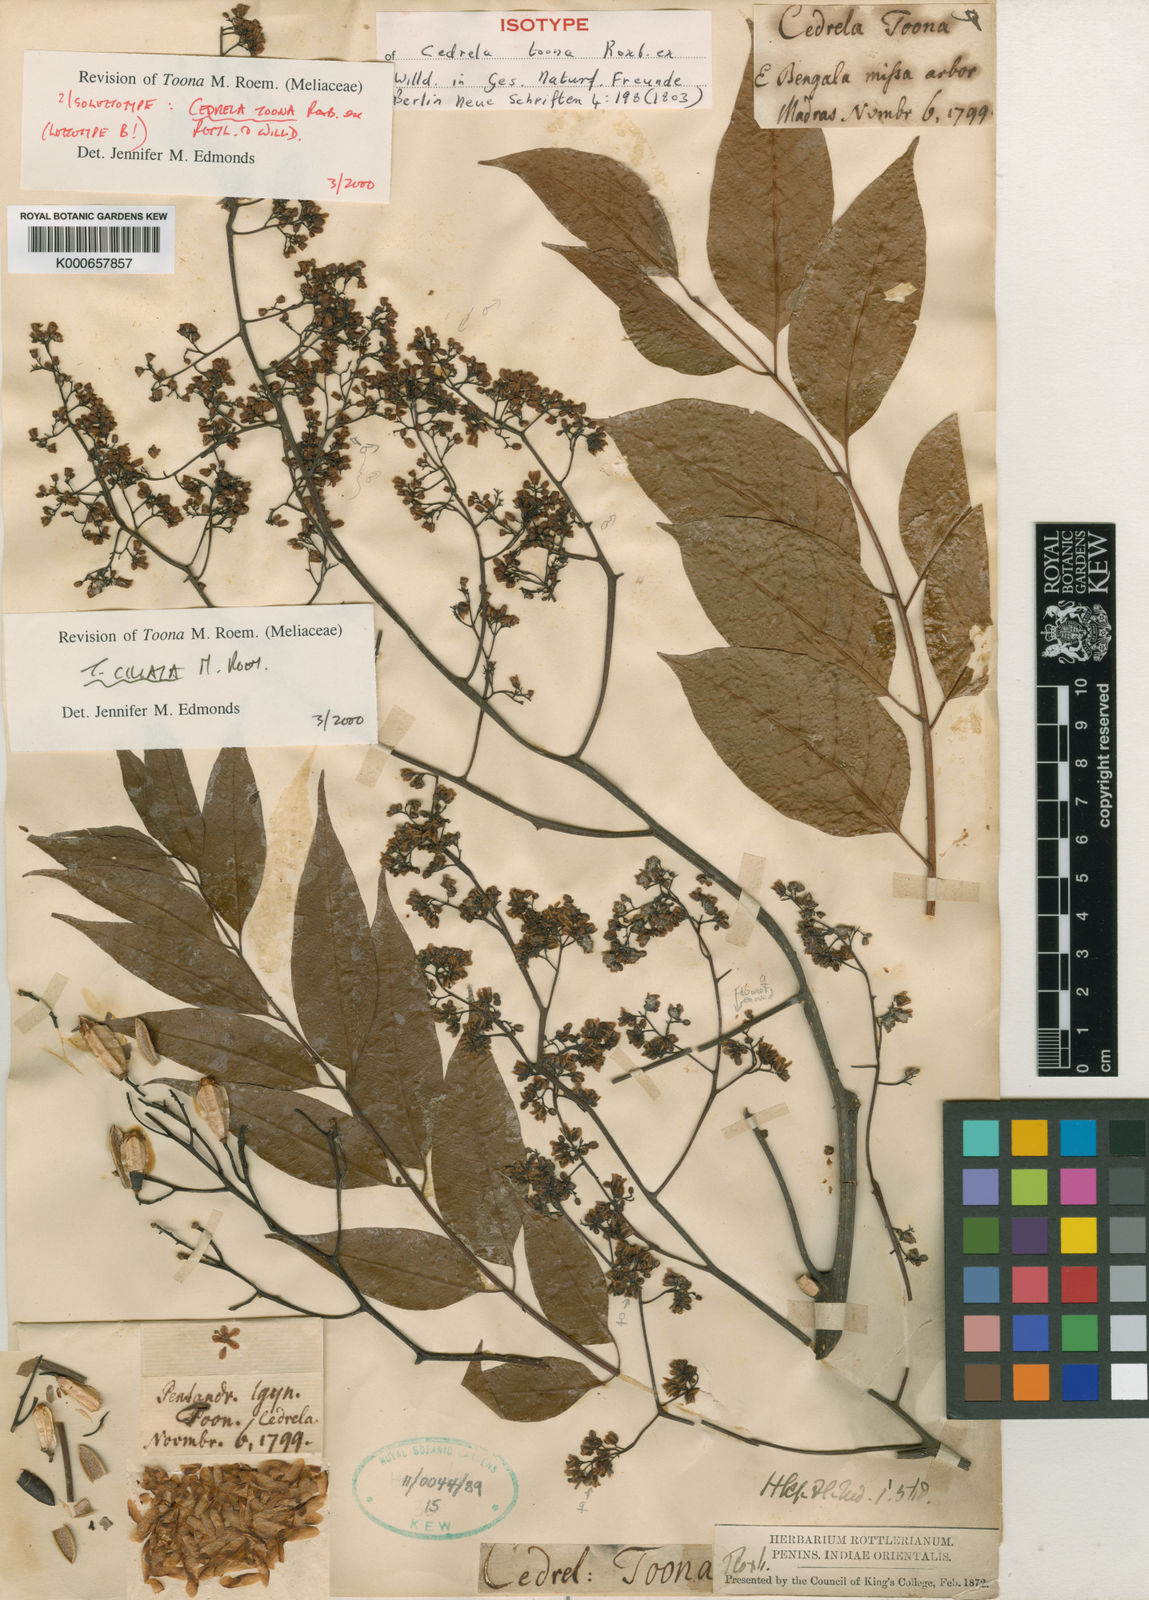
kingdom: Plantae
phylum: Tracheophyta
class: Magnoliopsida
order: Sapindales
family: Meliaceae
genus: Toona
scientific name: Toona ciliata
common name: Australian redcedar
